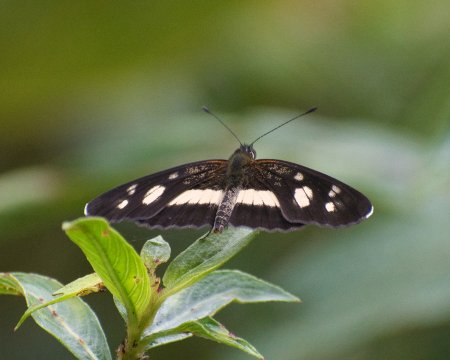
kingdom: Animalia
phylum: Arthropoda
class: Insecta
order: Lepidoptera
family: Nymphalidae
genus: Eresia
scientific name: Eresia clio
